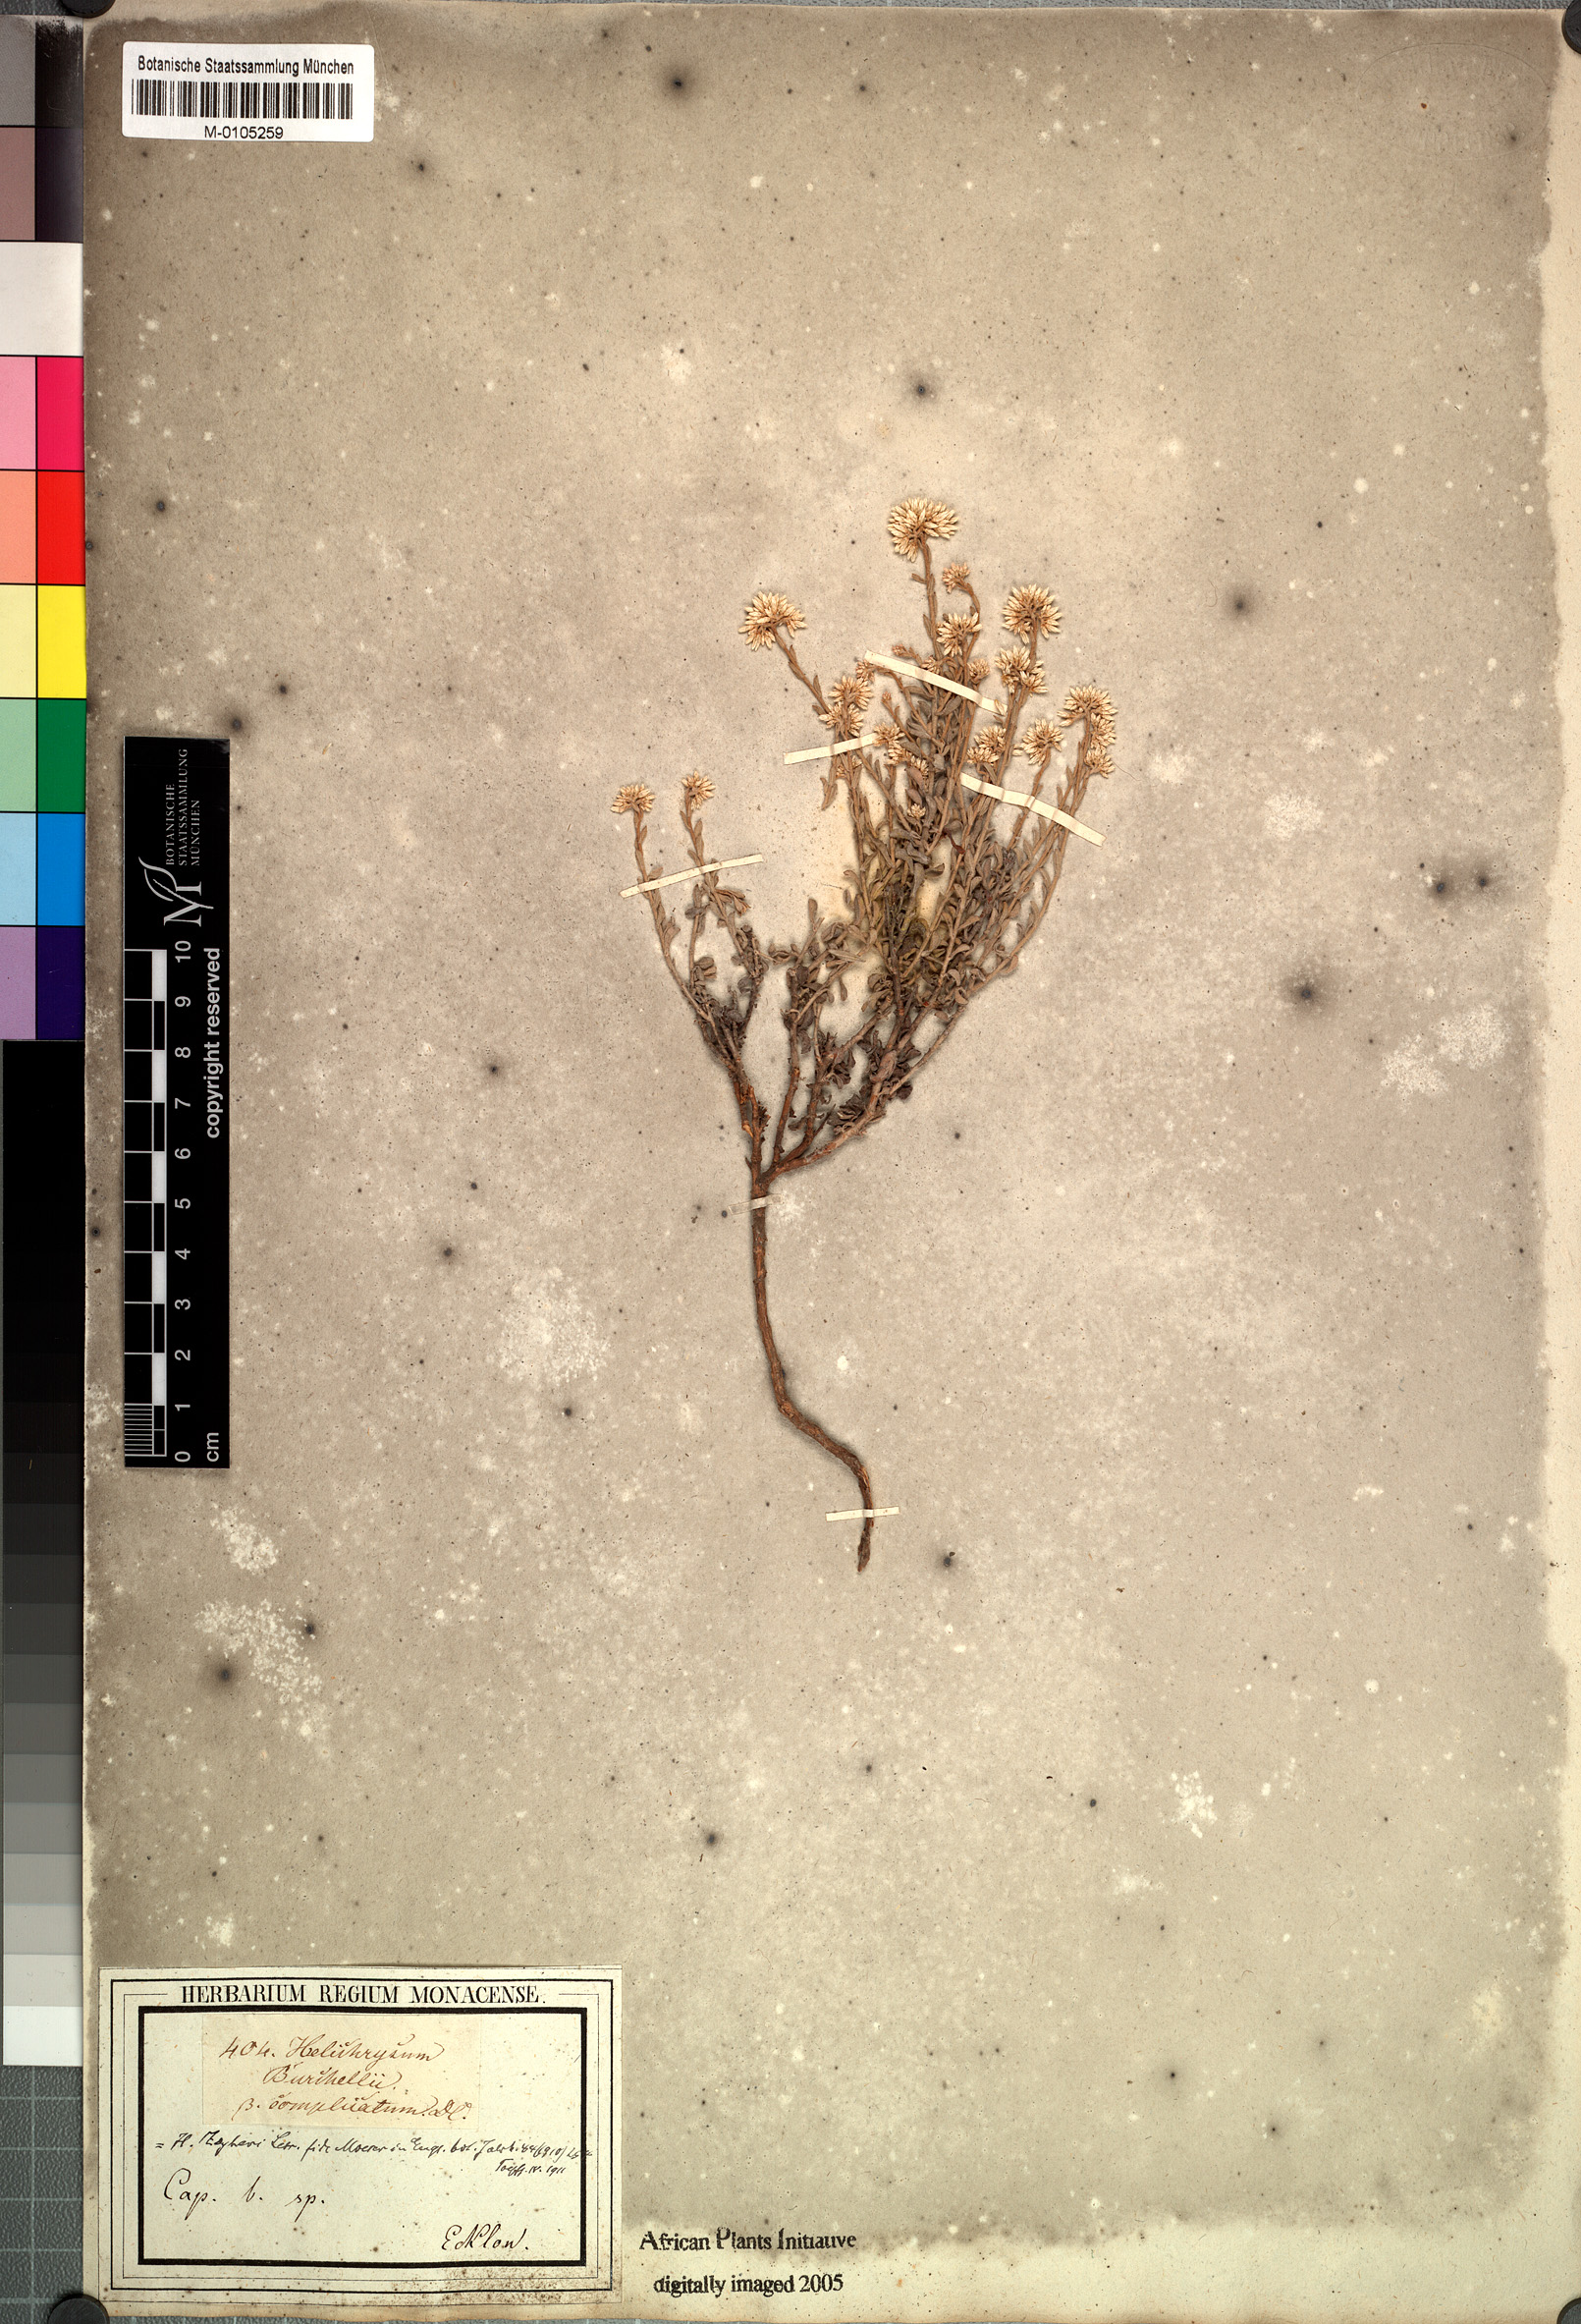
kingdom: Plantae
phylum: Tracheophyta
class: Magnoliopsida
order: Asterales
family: Asteraceae
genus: Helichrysum
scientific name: Helichrysum zeyheri
